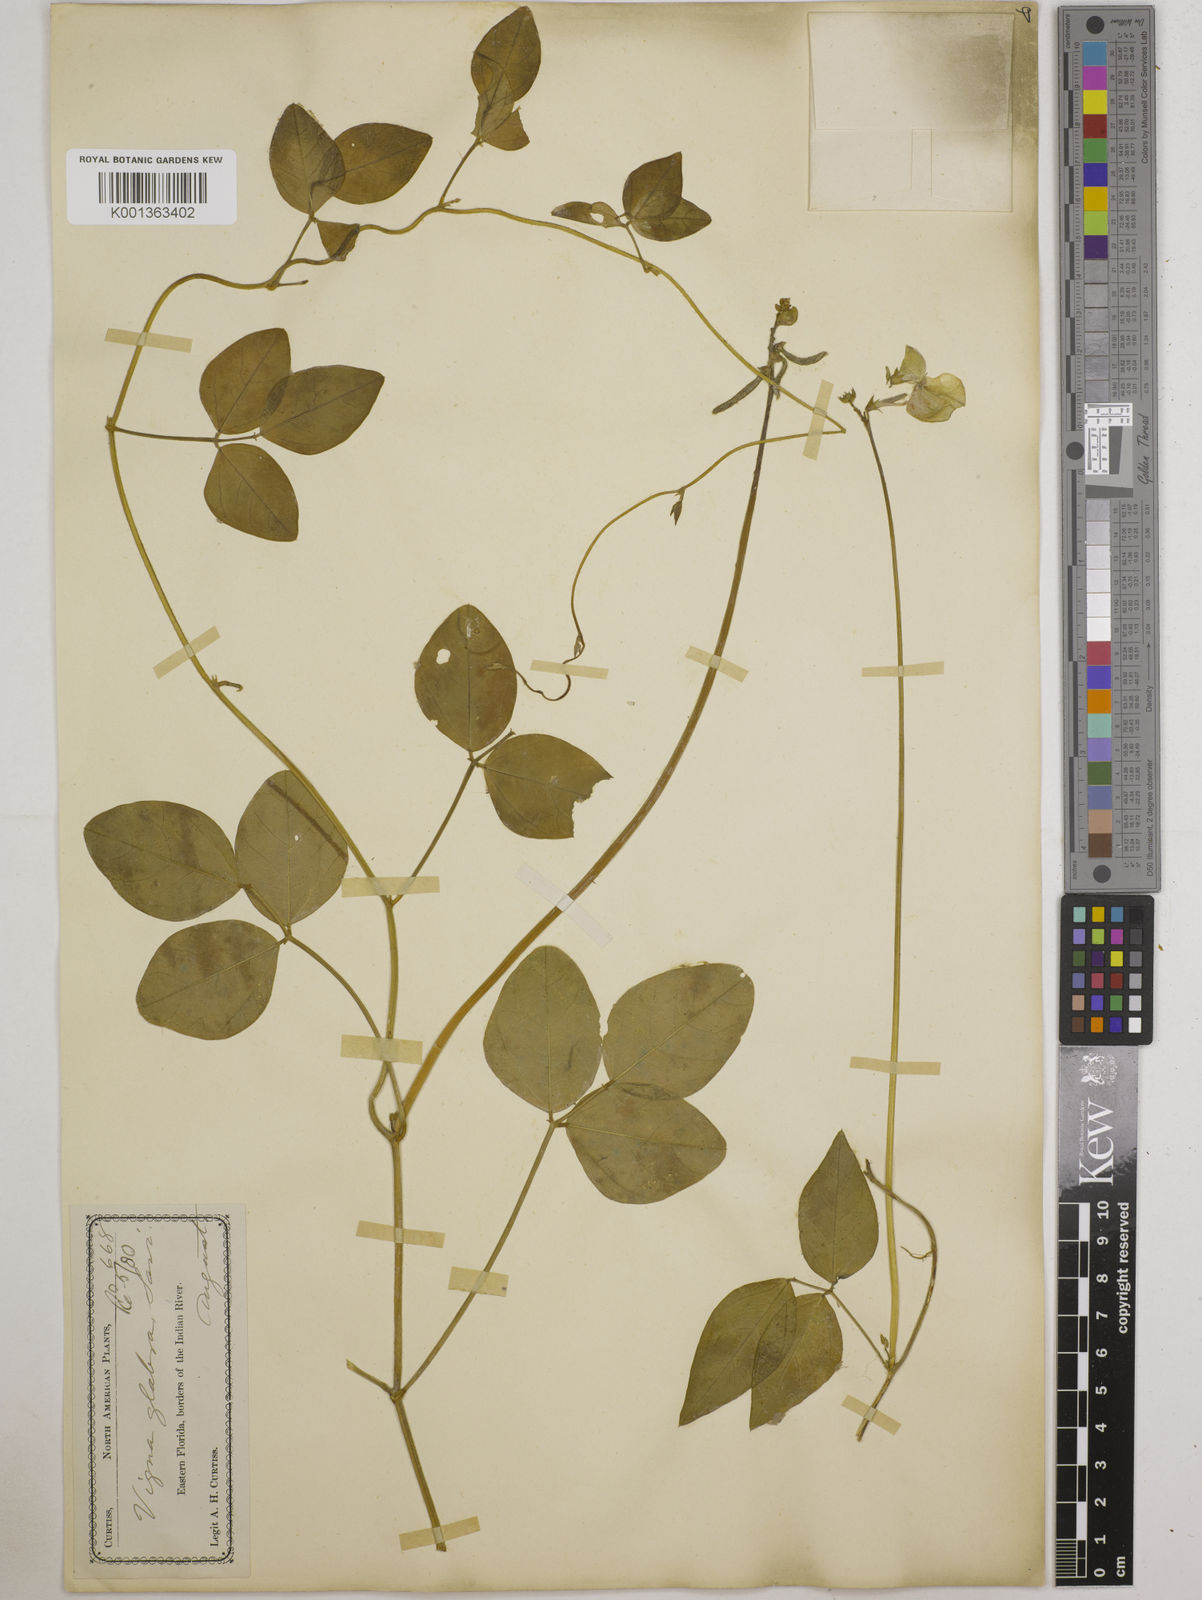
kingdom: Plantae
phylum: Tracheophyta
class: Magnoliopsida
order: Fabales
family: Fabaceae
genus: Vigna
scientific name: Vigna luteola
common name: Hairypod cowpea
